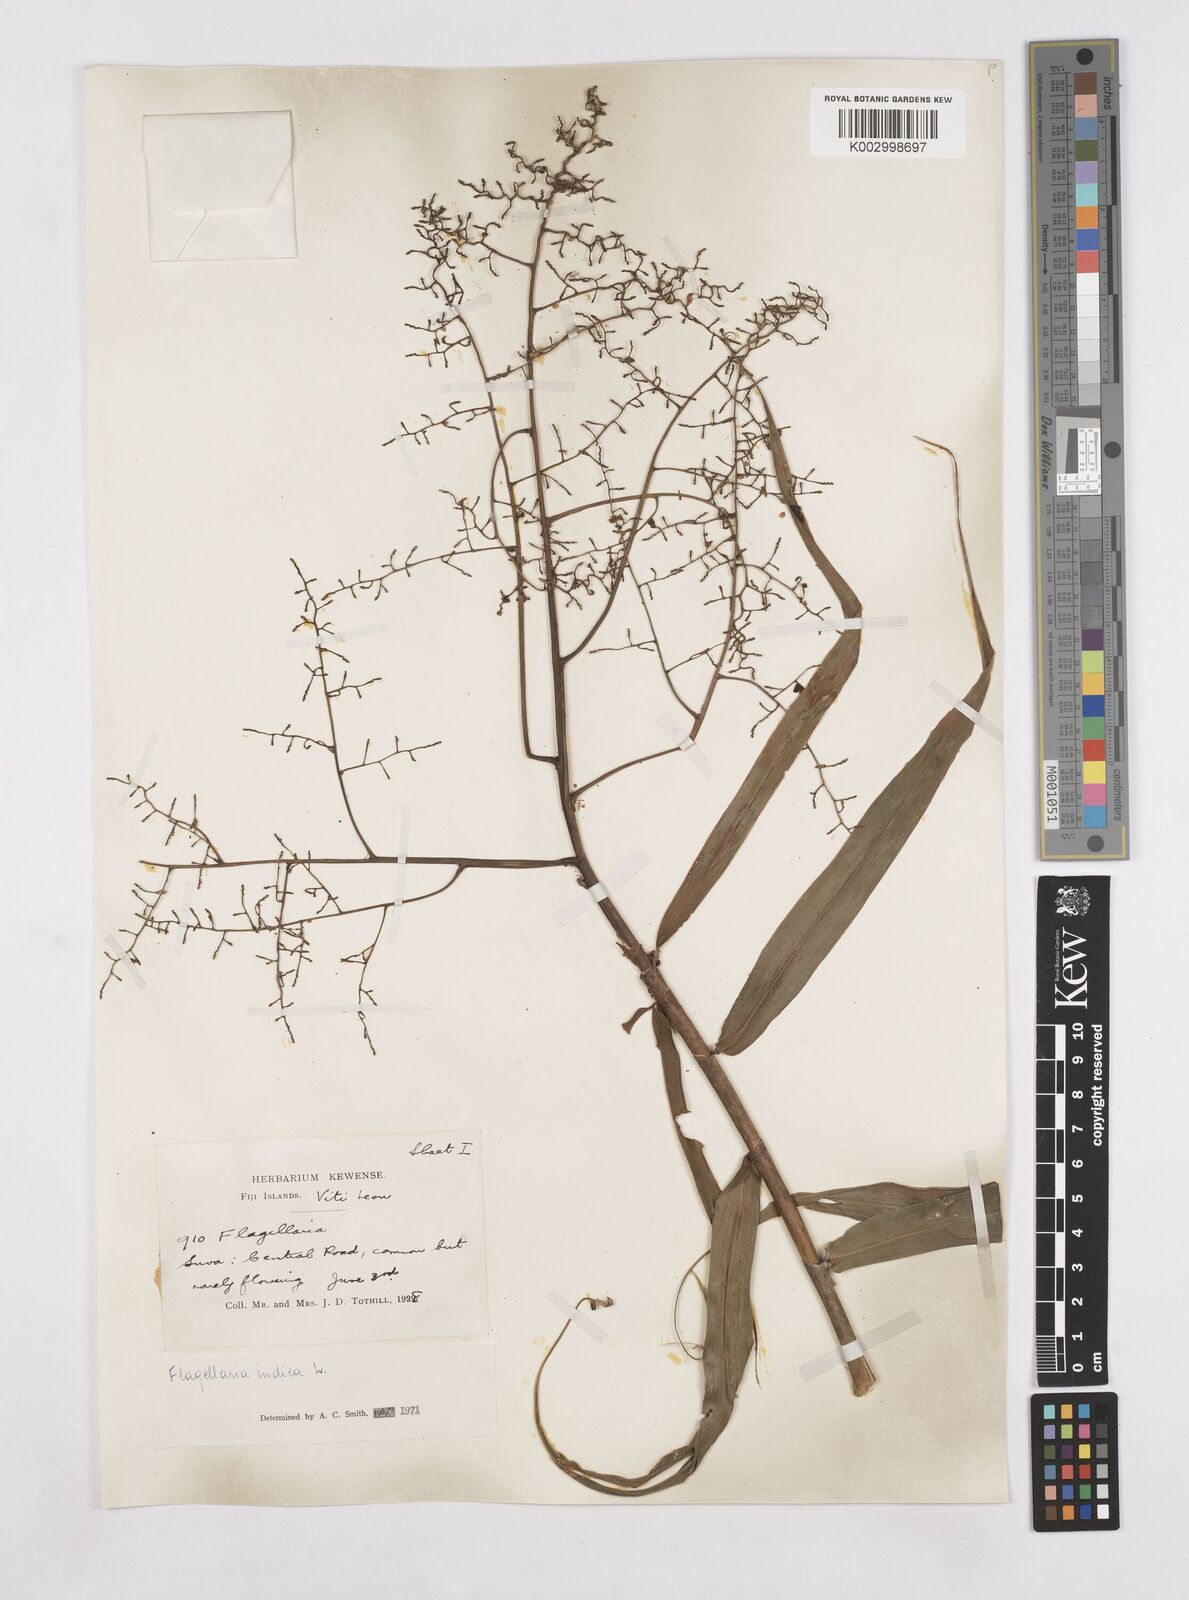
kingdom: Plantae
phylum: Tracheophyta
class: Liliopsida
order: Poales
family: Flagellariaceae
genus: Flagellaria
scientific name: Flagellaria indica
